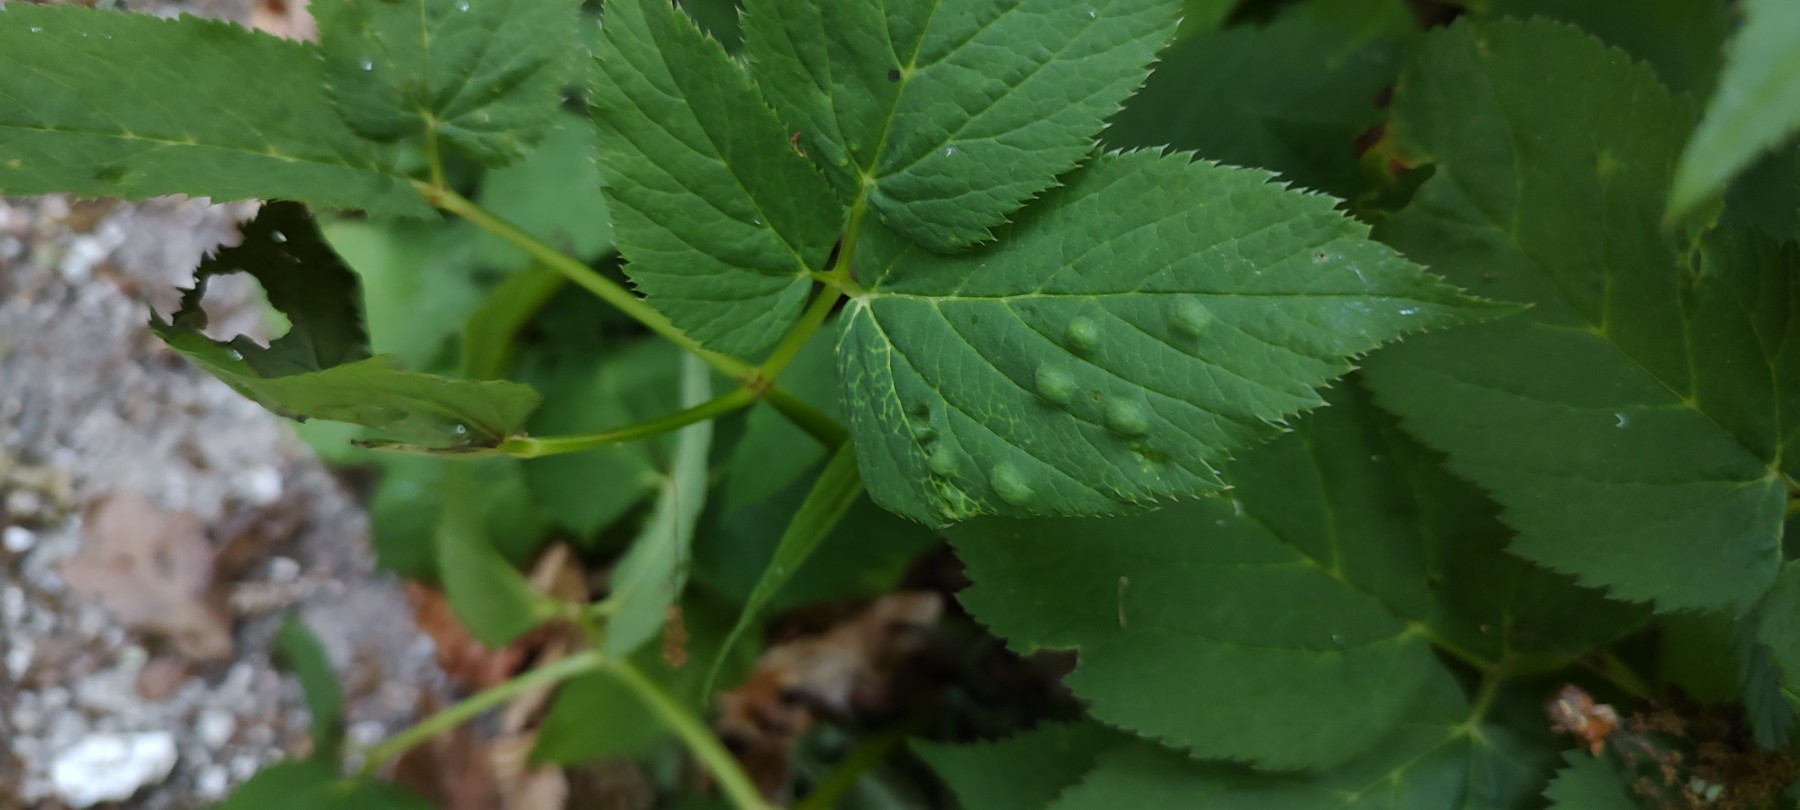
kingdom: Fungi
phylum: Ascomycota
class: Taphrinomycetes
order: Taphrinales
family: Taphrinaceae
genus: Protomyces
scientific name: Protomyces macrosporus
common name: skvalderkål-vablesæk
